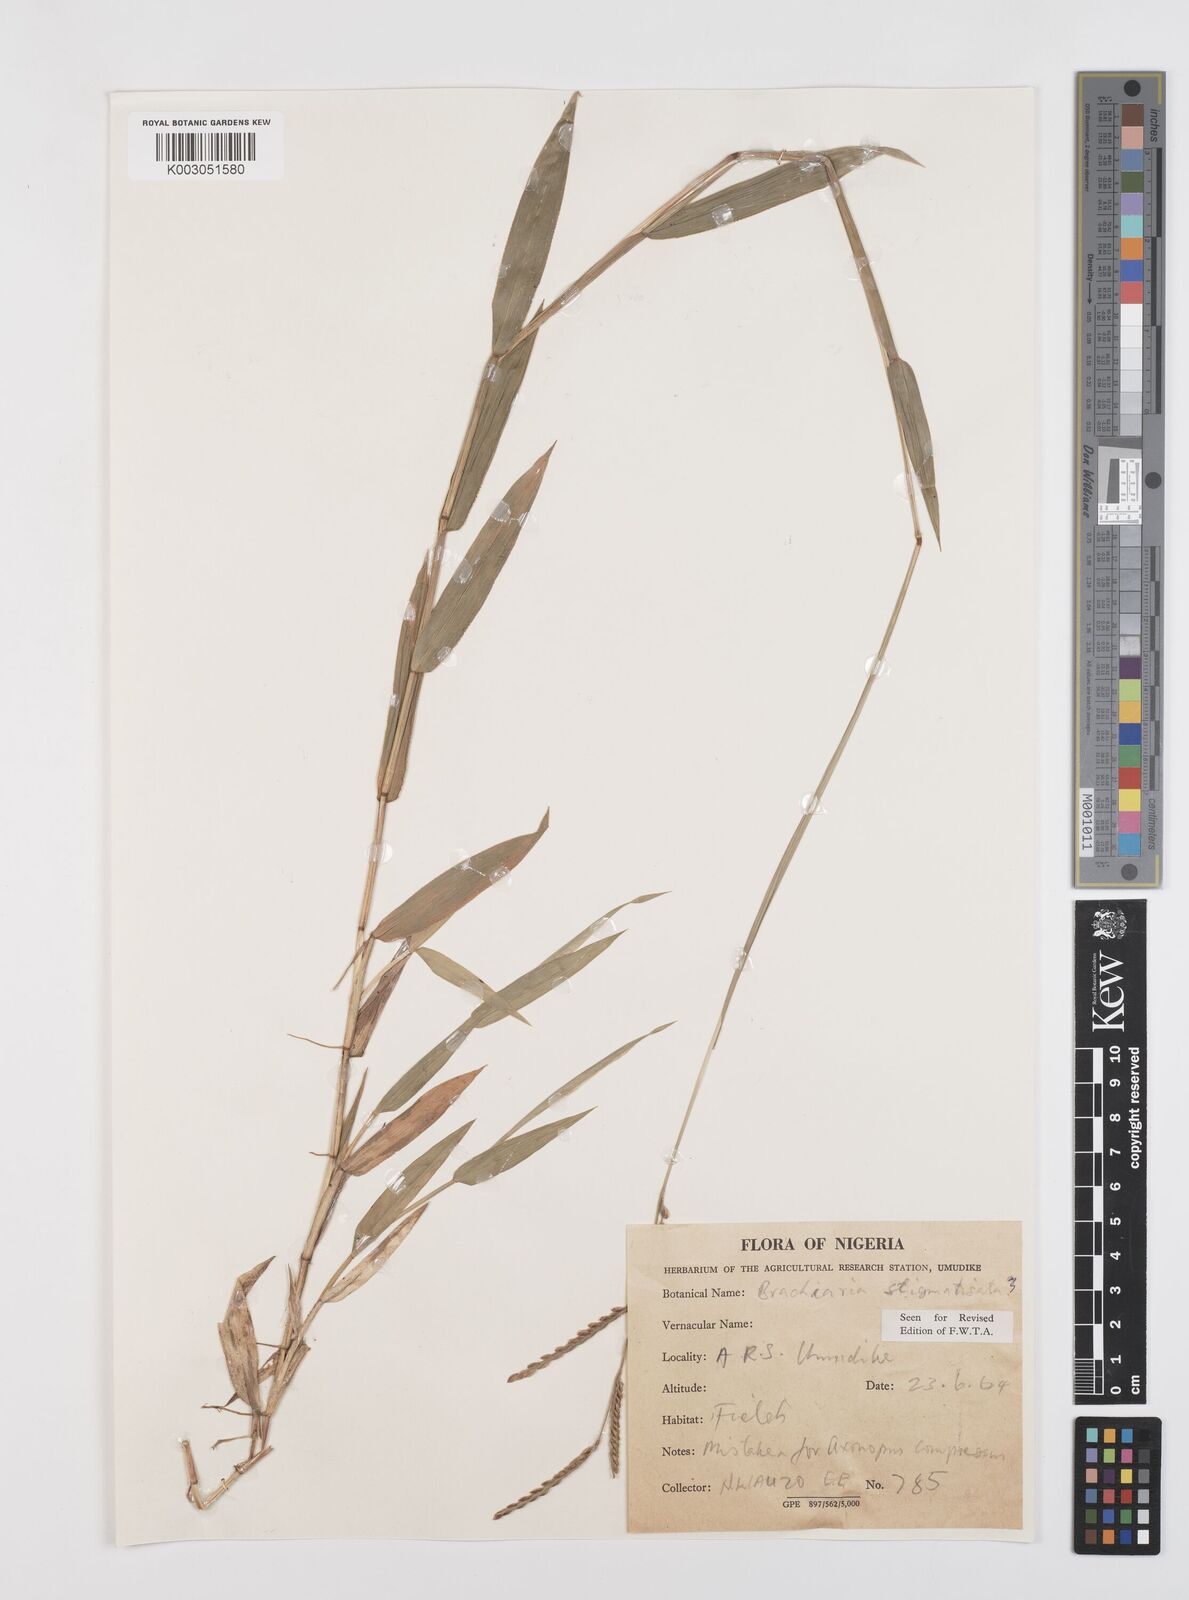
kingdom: Plantae
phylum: Tracheophyta
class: Liliopsida
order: Poales
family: Poaceae
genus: Urochloa
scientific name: Urochloa stigmatisata
